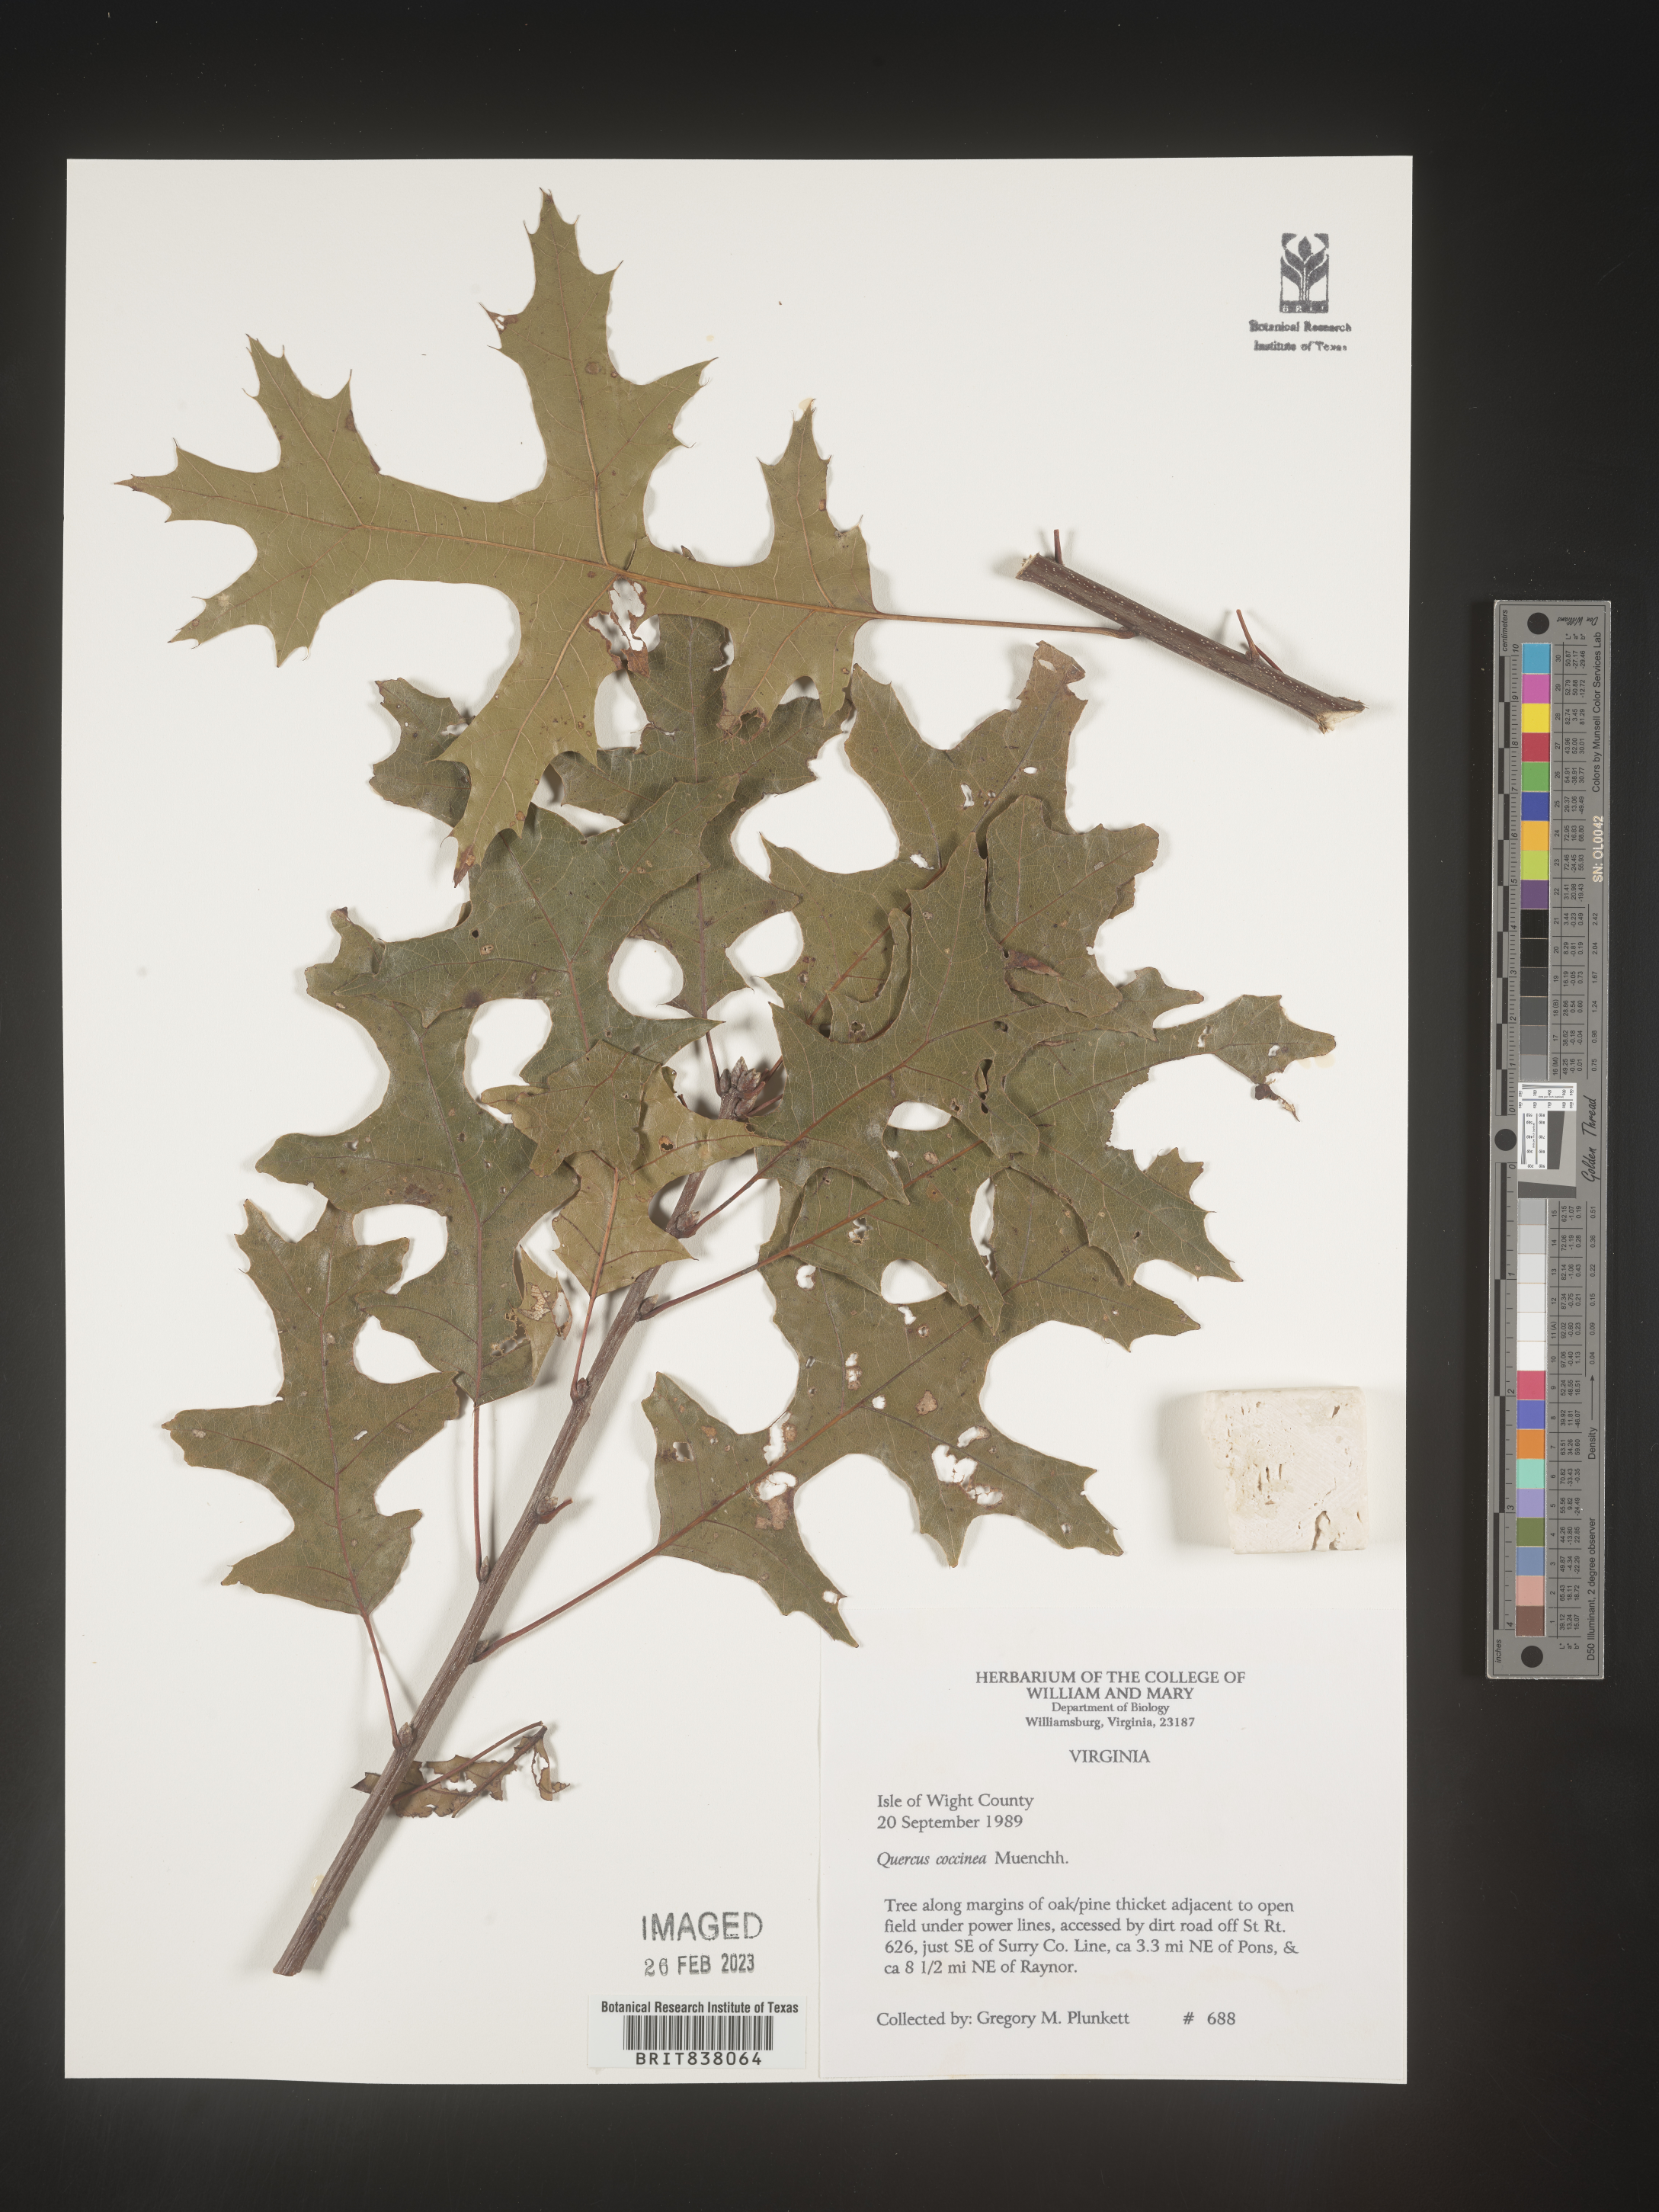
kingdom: Plantae
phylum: Tracheophyta
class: Magnoliopsida
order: Fagales
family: Fagaceae
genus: Quercus
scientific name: Quercus coccinea
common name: Scarlet oak
